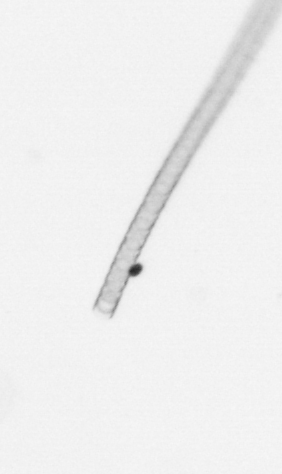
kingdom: Chromista
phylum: Ochrophyta
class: Bacillariophyceae
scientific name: Bacillariophyceae
